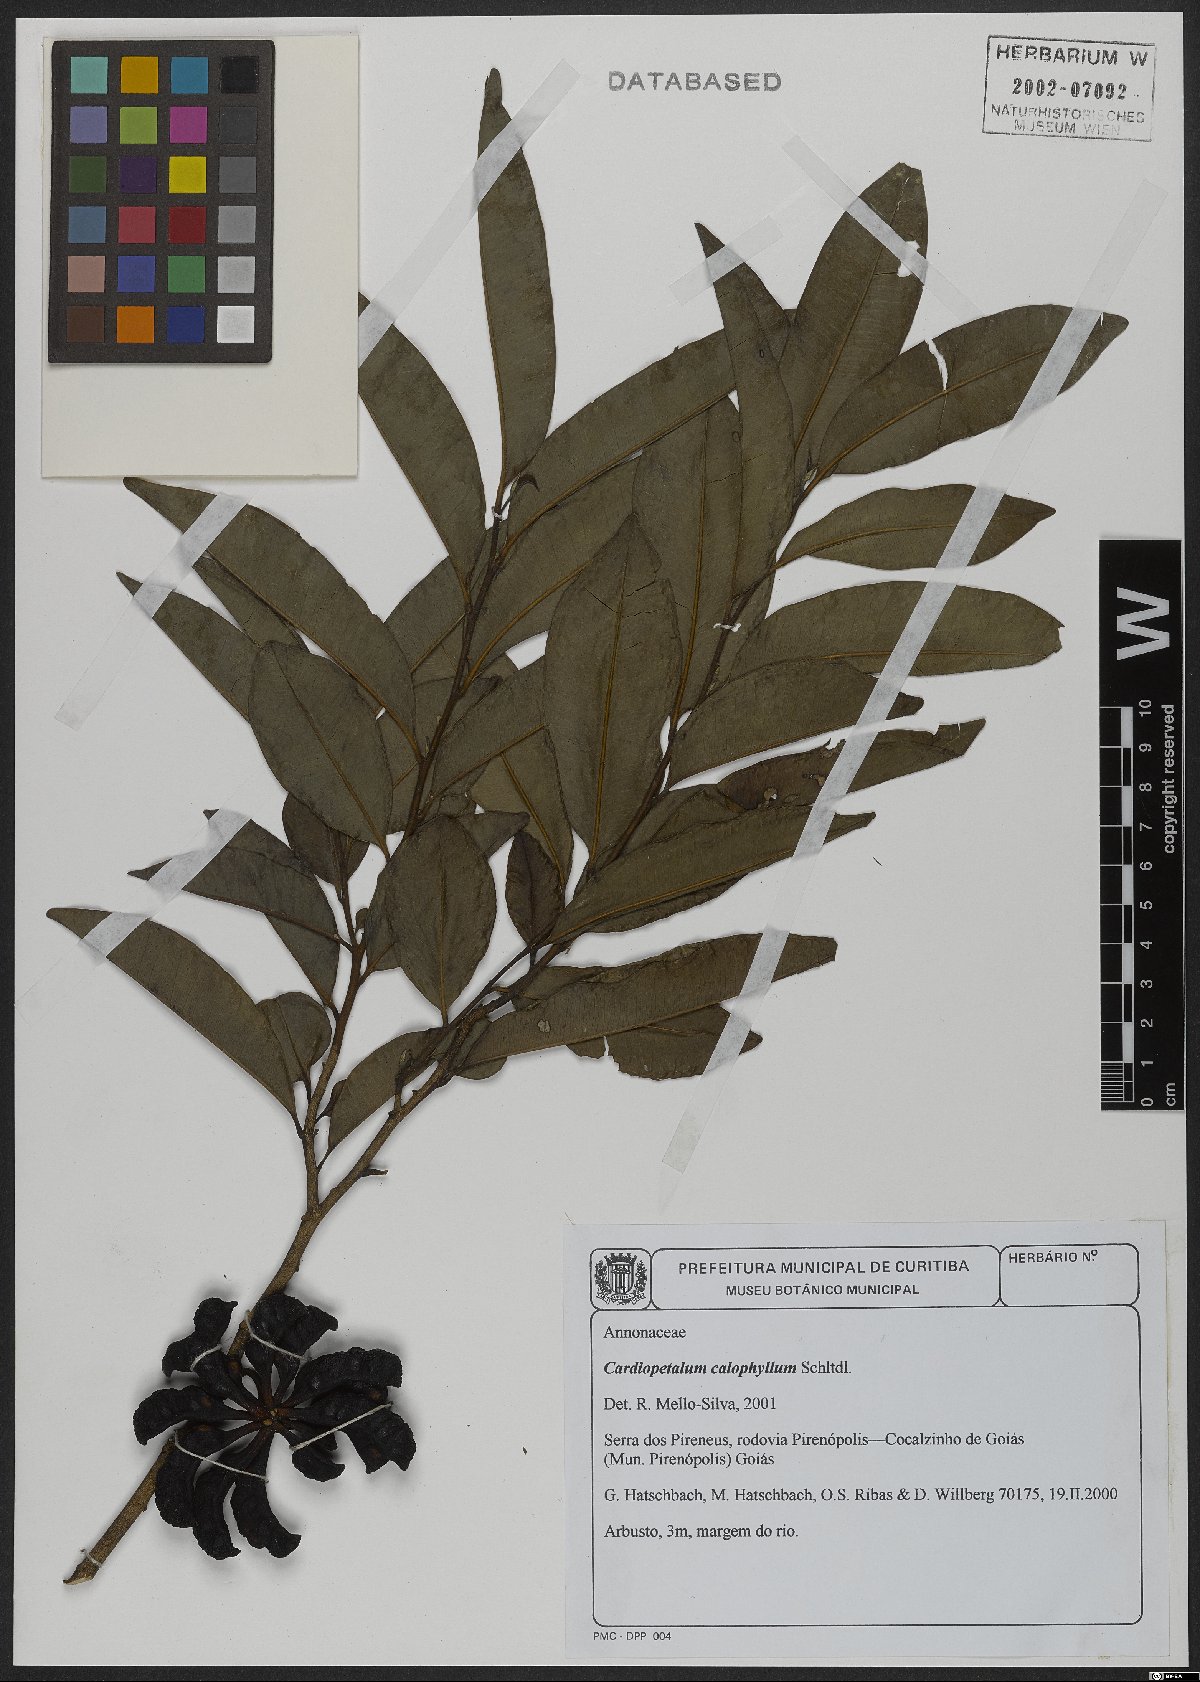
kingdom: Plantae
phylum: Tracheophyta
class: Magnoliopsida
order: Magnoliales
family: Annonaceae
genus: Cardiopetalum
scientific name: Cardiopetalum calophyllum
